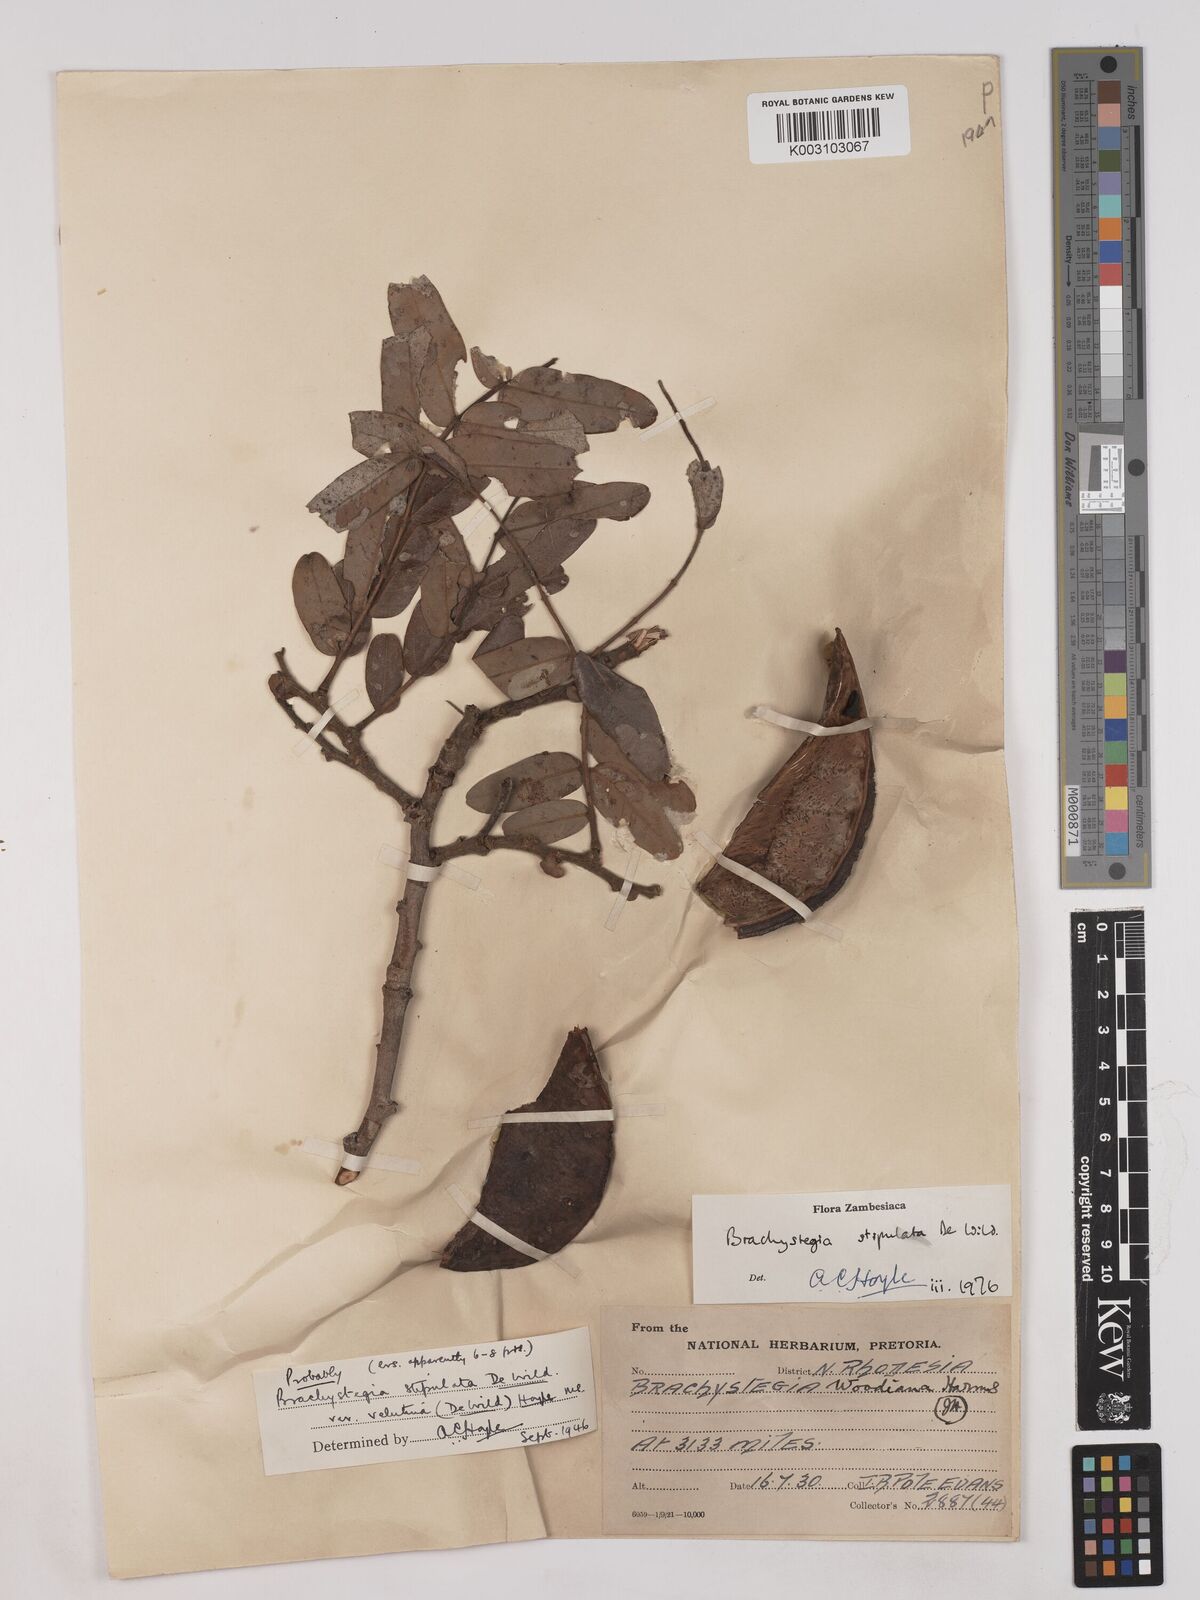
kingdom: Plantae
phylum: Tracheophyta
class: Magnoliopsida
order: Fabales
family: Fabaceae
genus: Brachystegia
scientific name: Brachystegia stipulata
